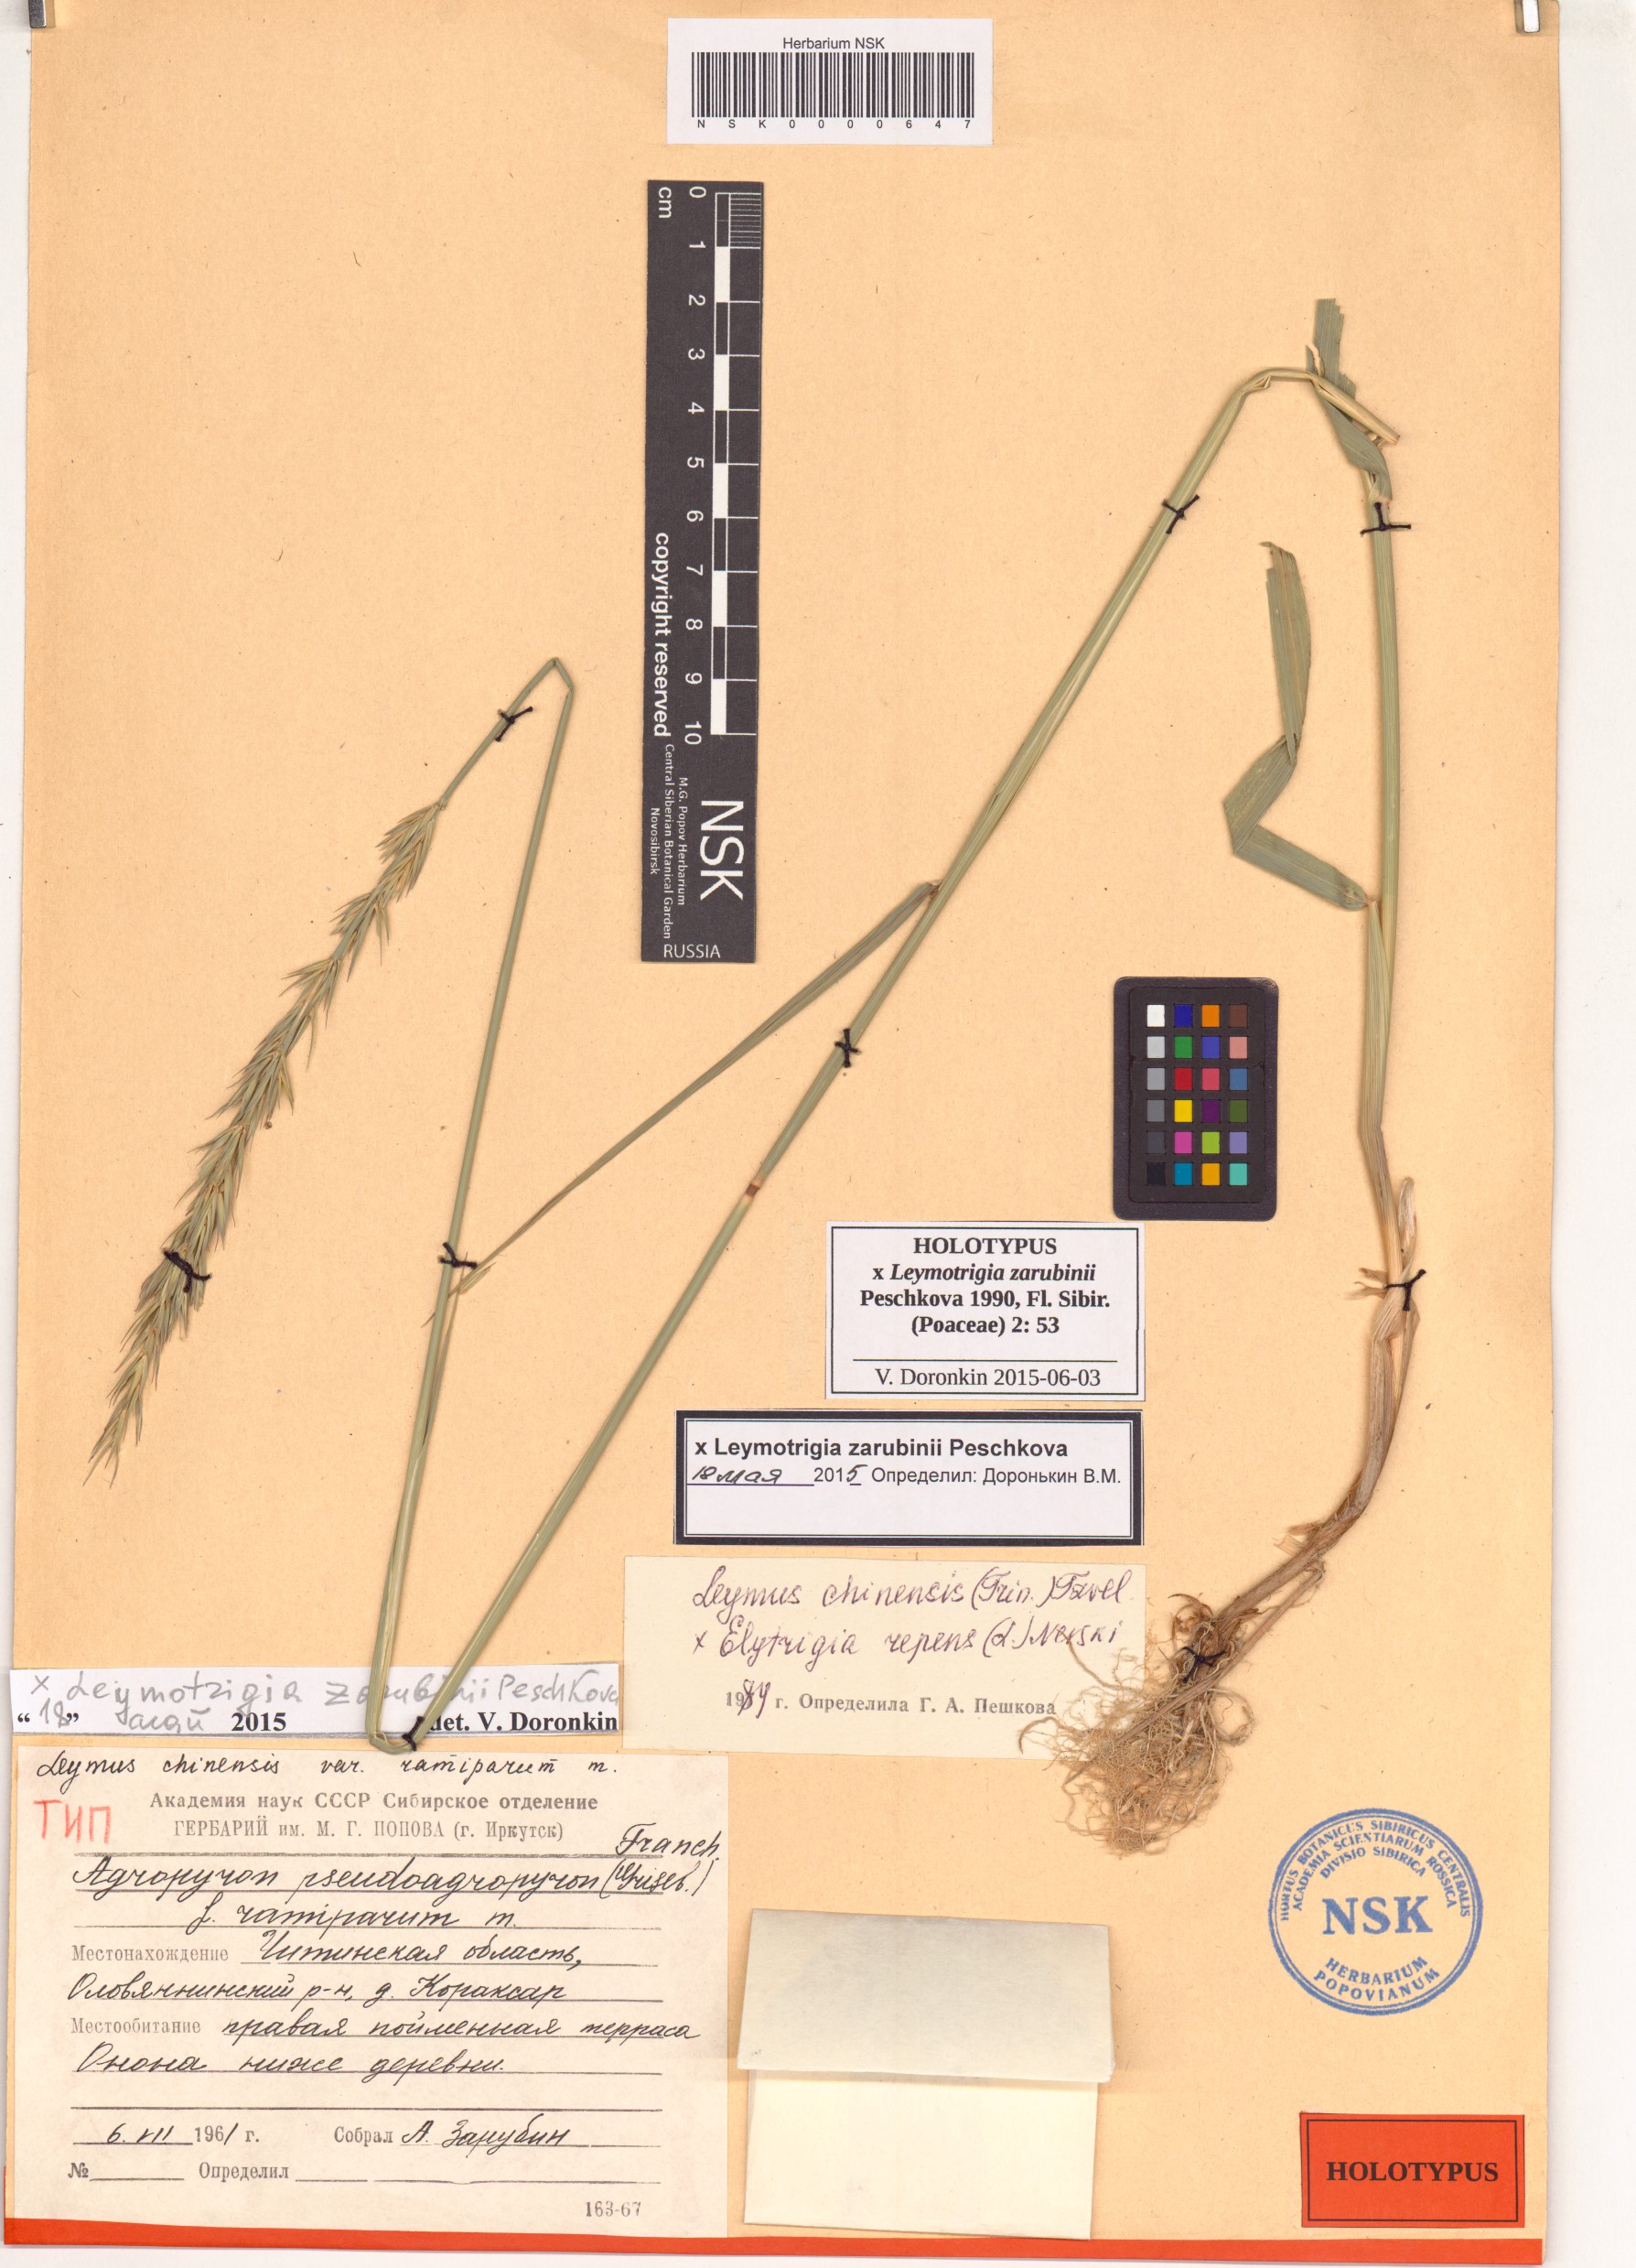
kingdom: Plantae
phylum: Tracheophyta
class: Liliopsida
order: Poales
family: Poaceae
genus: Elyleymus
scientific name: Elyleymus Leymotrigia zarubinii
